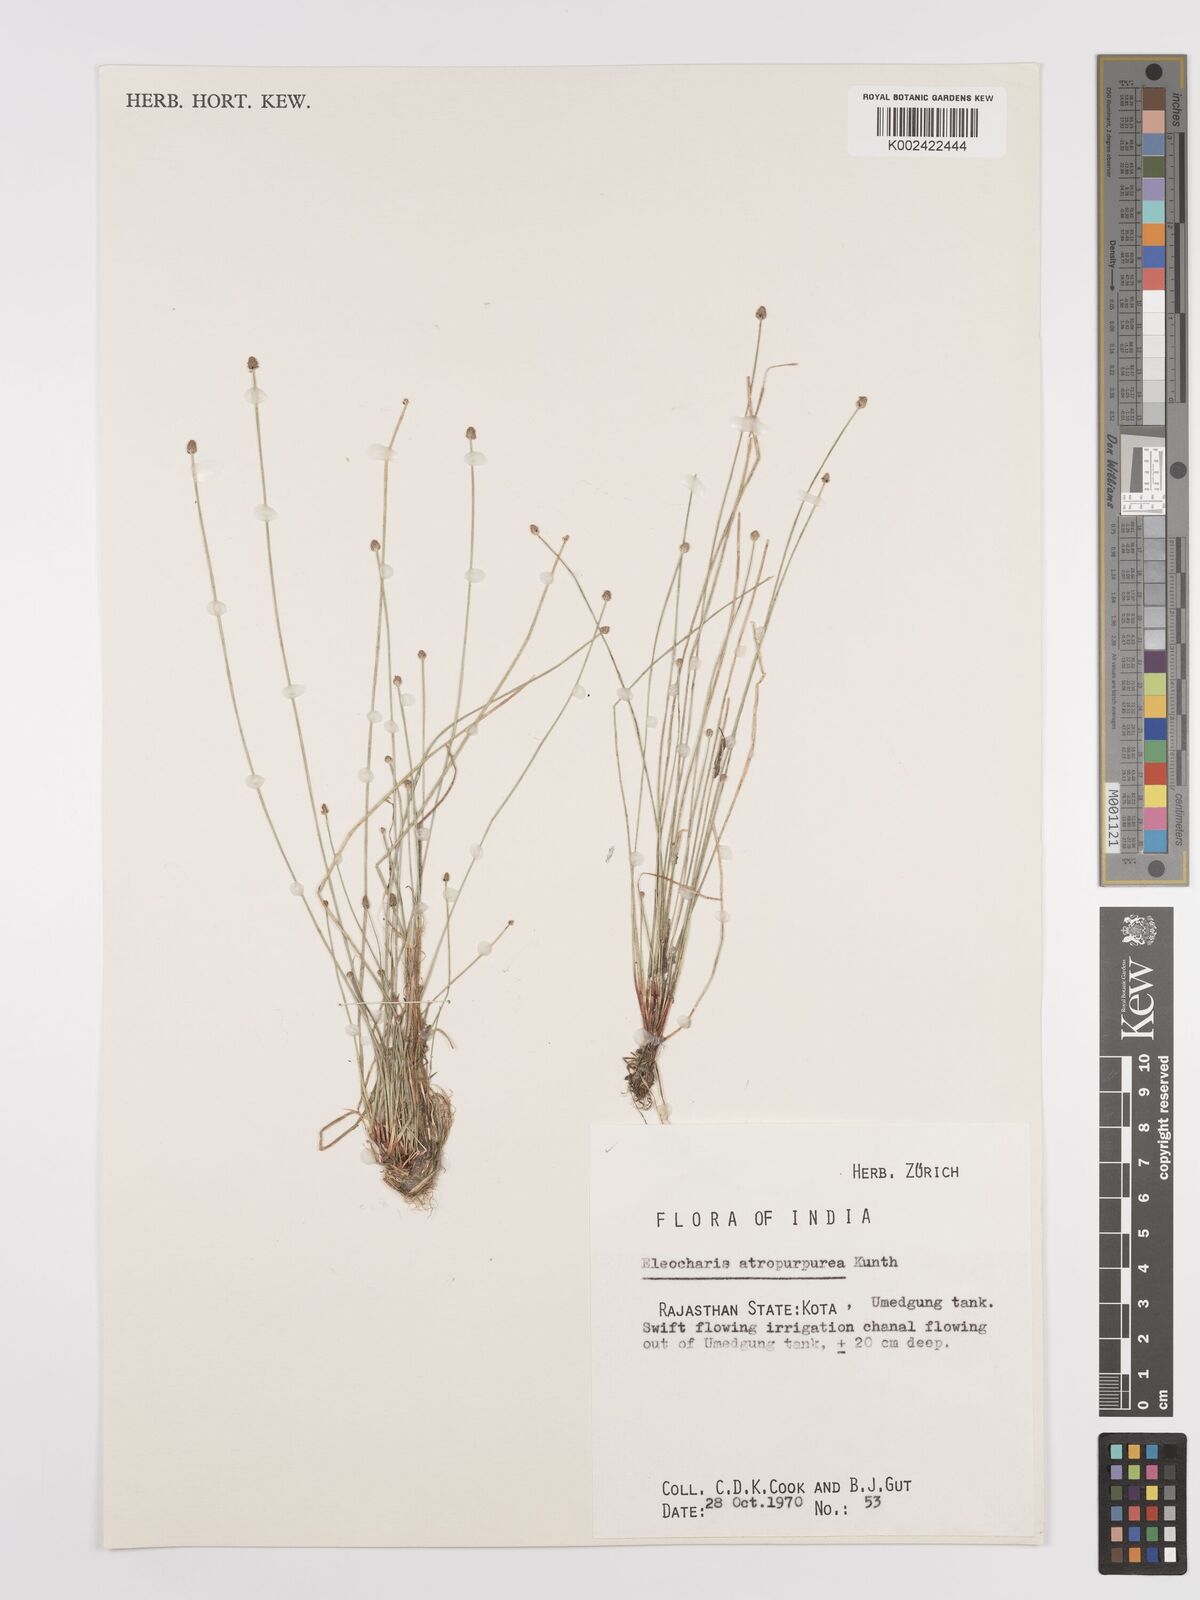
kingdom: Plantae
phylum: Tracheophyta
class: Liliopsida
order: Poales
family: Cyperaceae
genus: Eleocharis
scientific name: Eleocharis atropurpurea
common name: Purple spikerush
